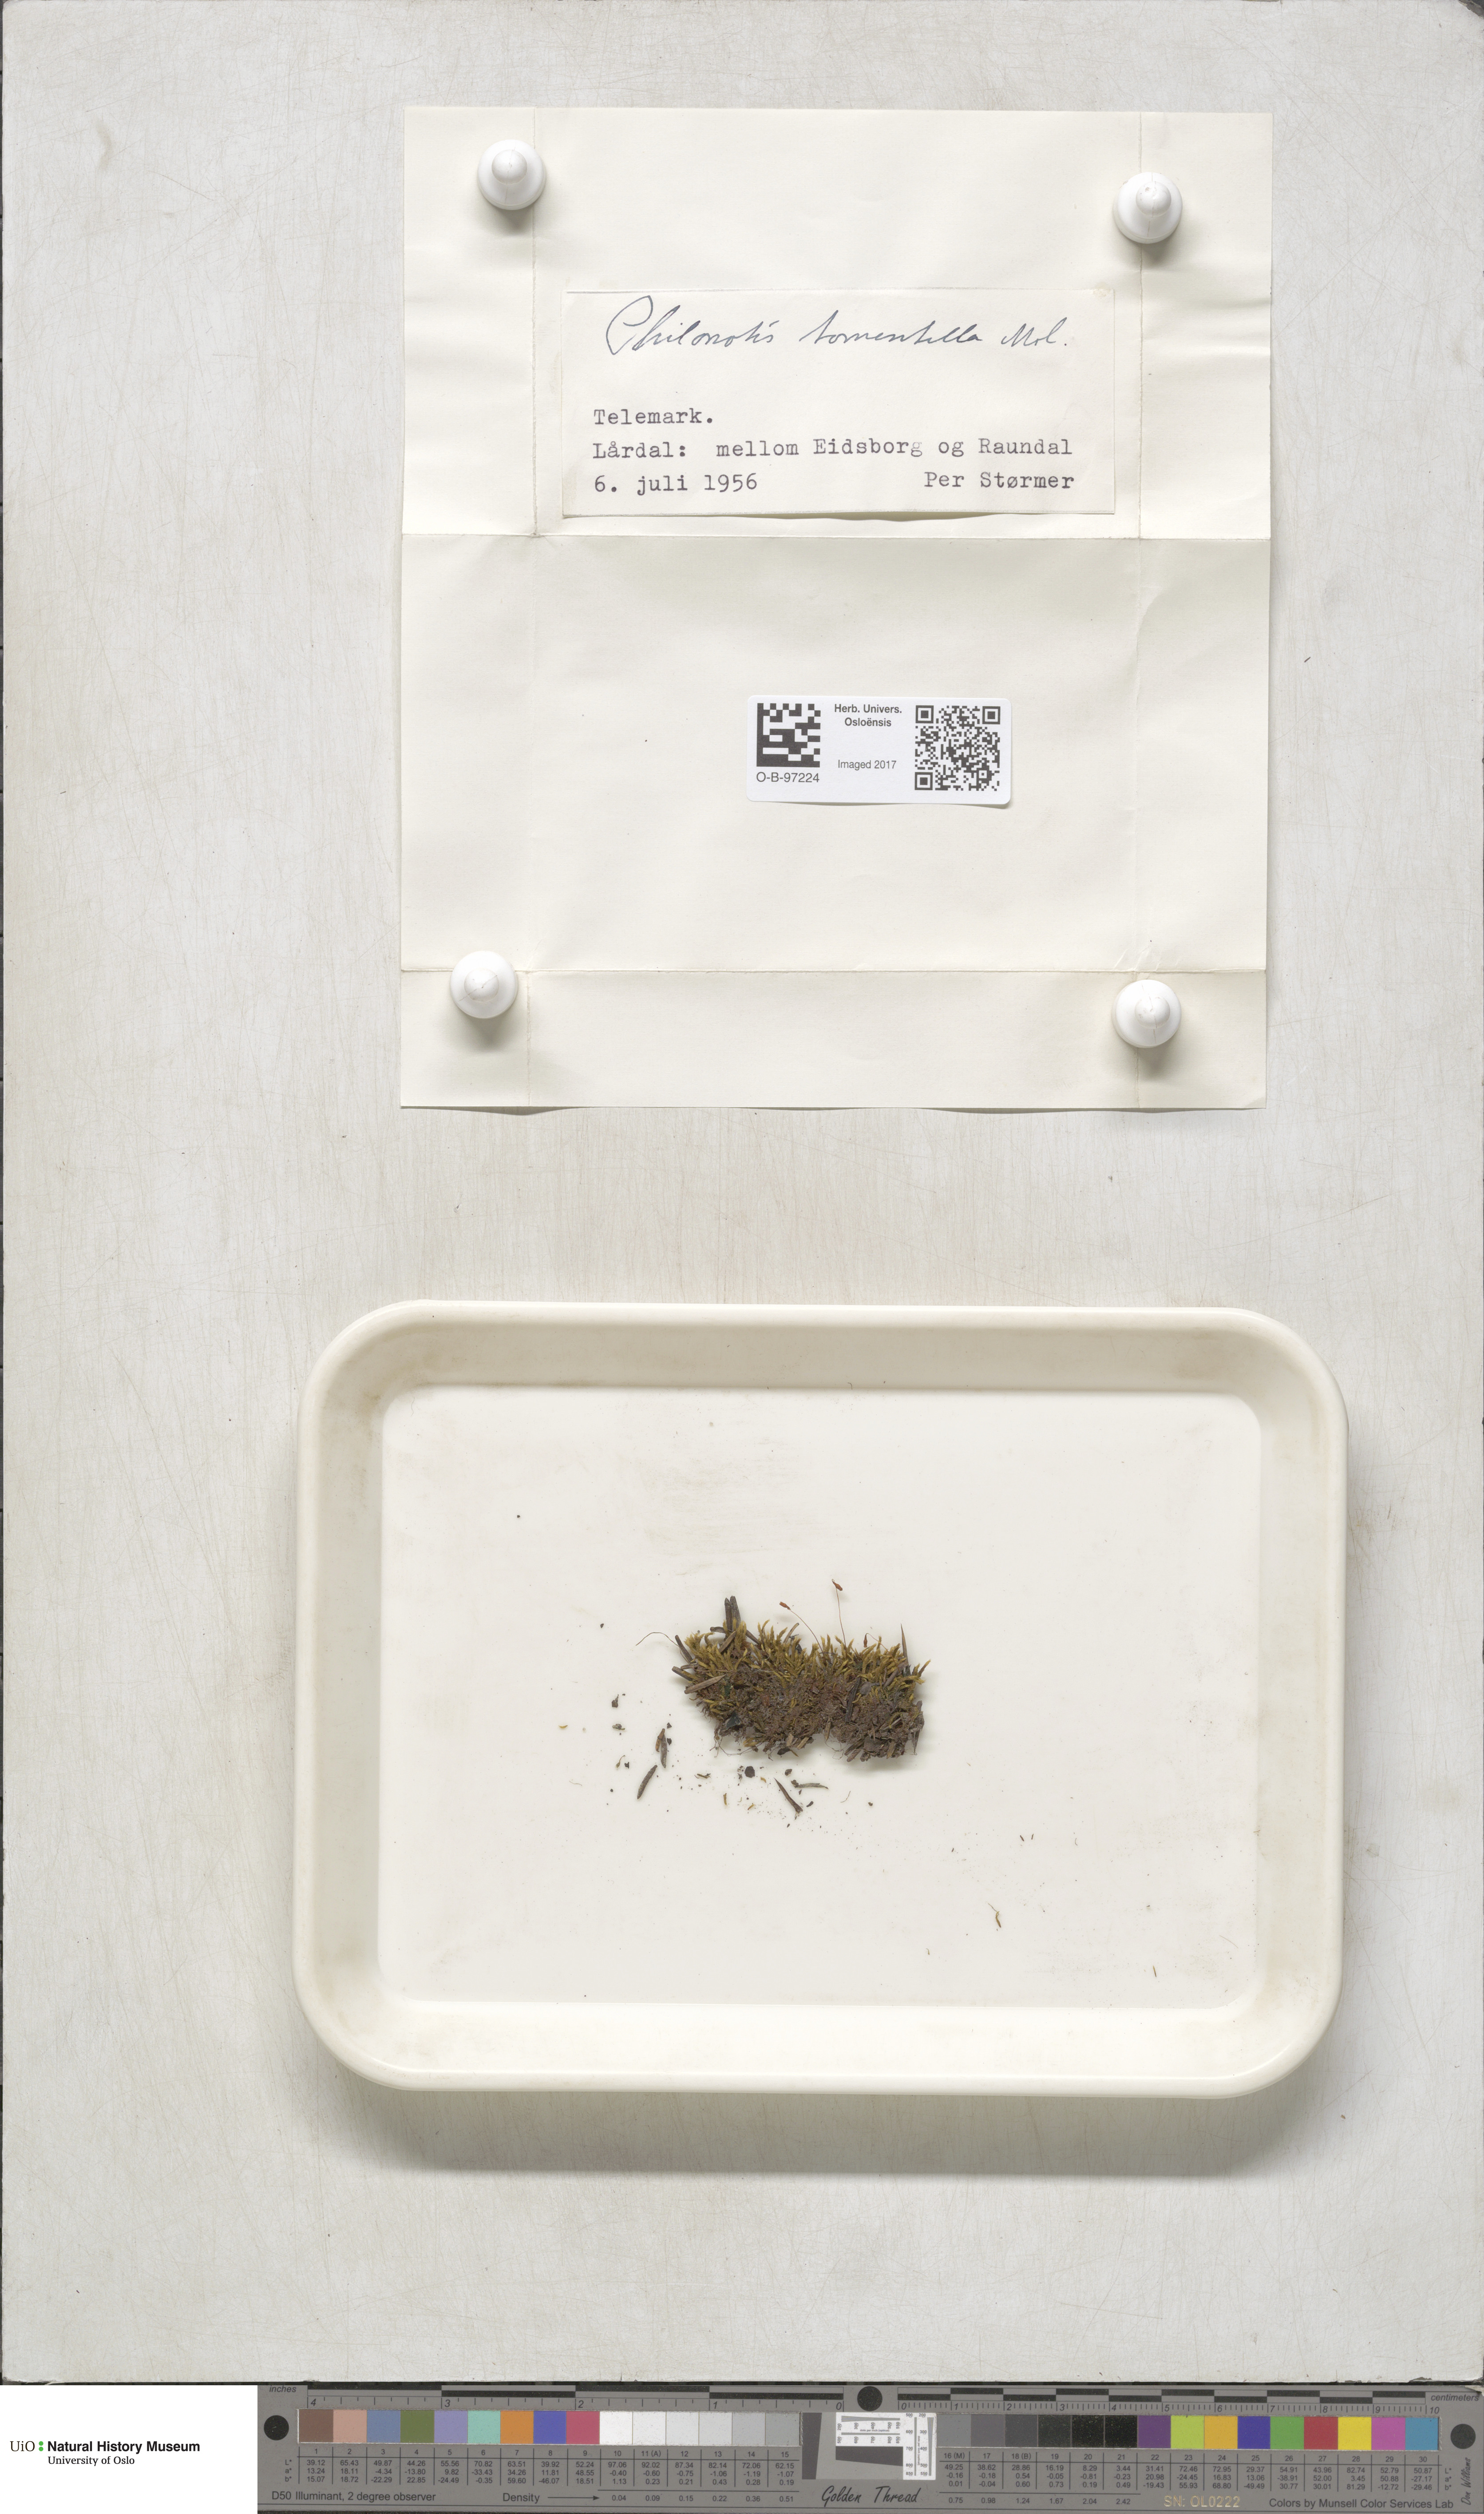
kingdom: Plantae
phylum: Bryophyta
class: Bryopsida
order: Bartramiales
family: Bartramiaceae
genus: Philonotis
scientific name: Philonotis tomentella
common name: Woolly apple moss
